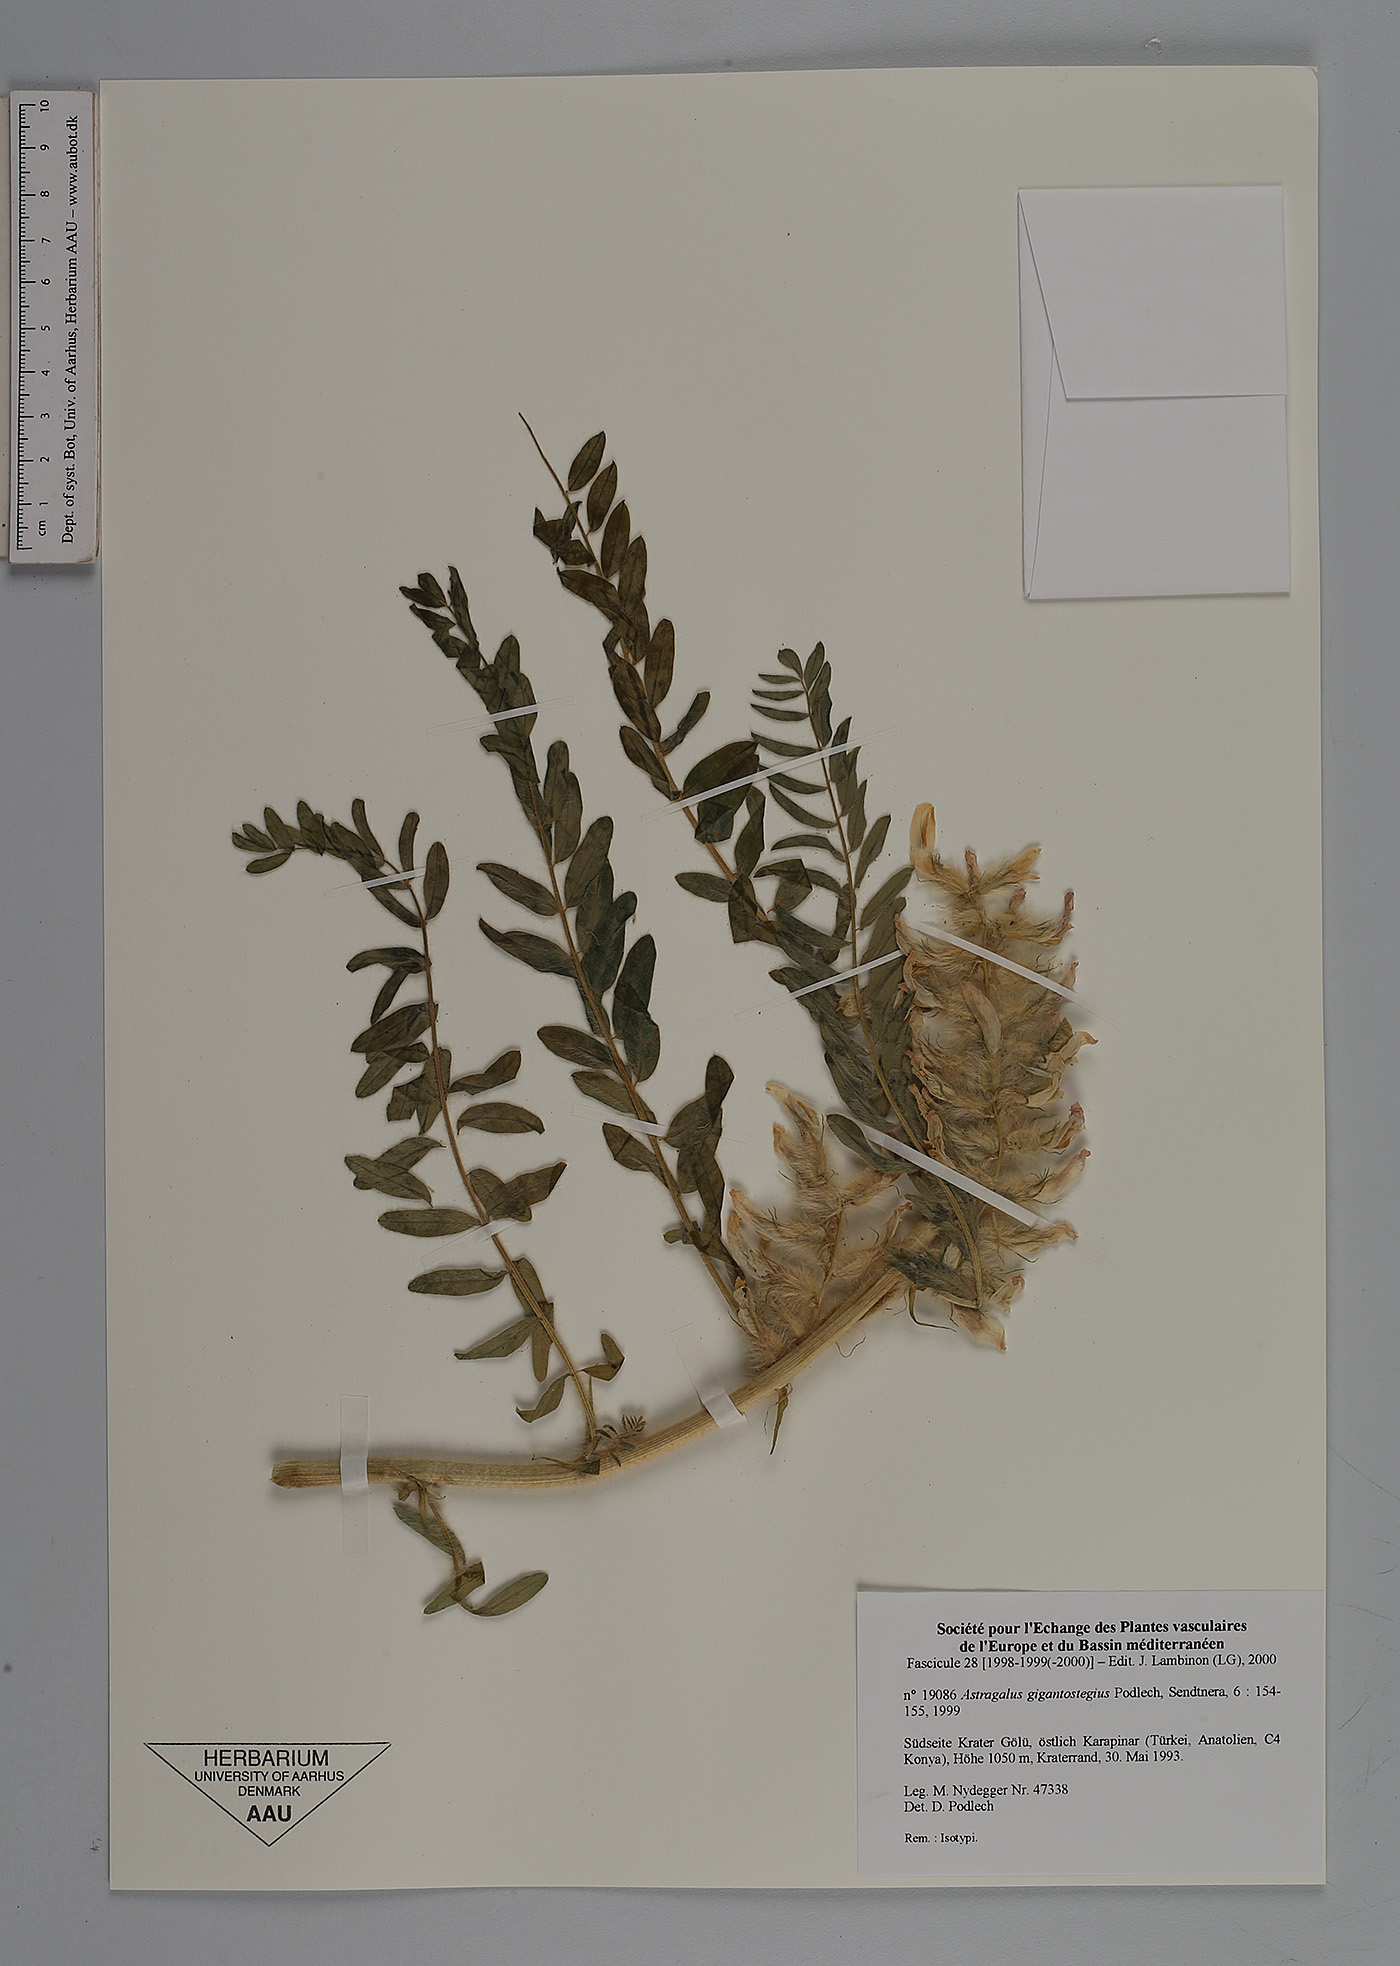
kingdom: Plantae
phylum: Tracheophyta
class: Magnoliopsida
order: Fabales
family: Fabaceae
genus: Astragalus
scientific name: Astragalus gigantostegius
